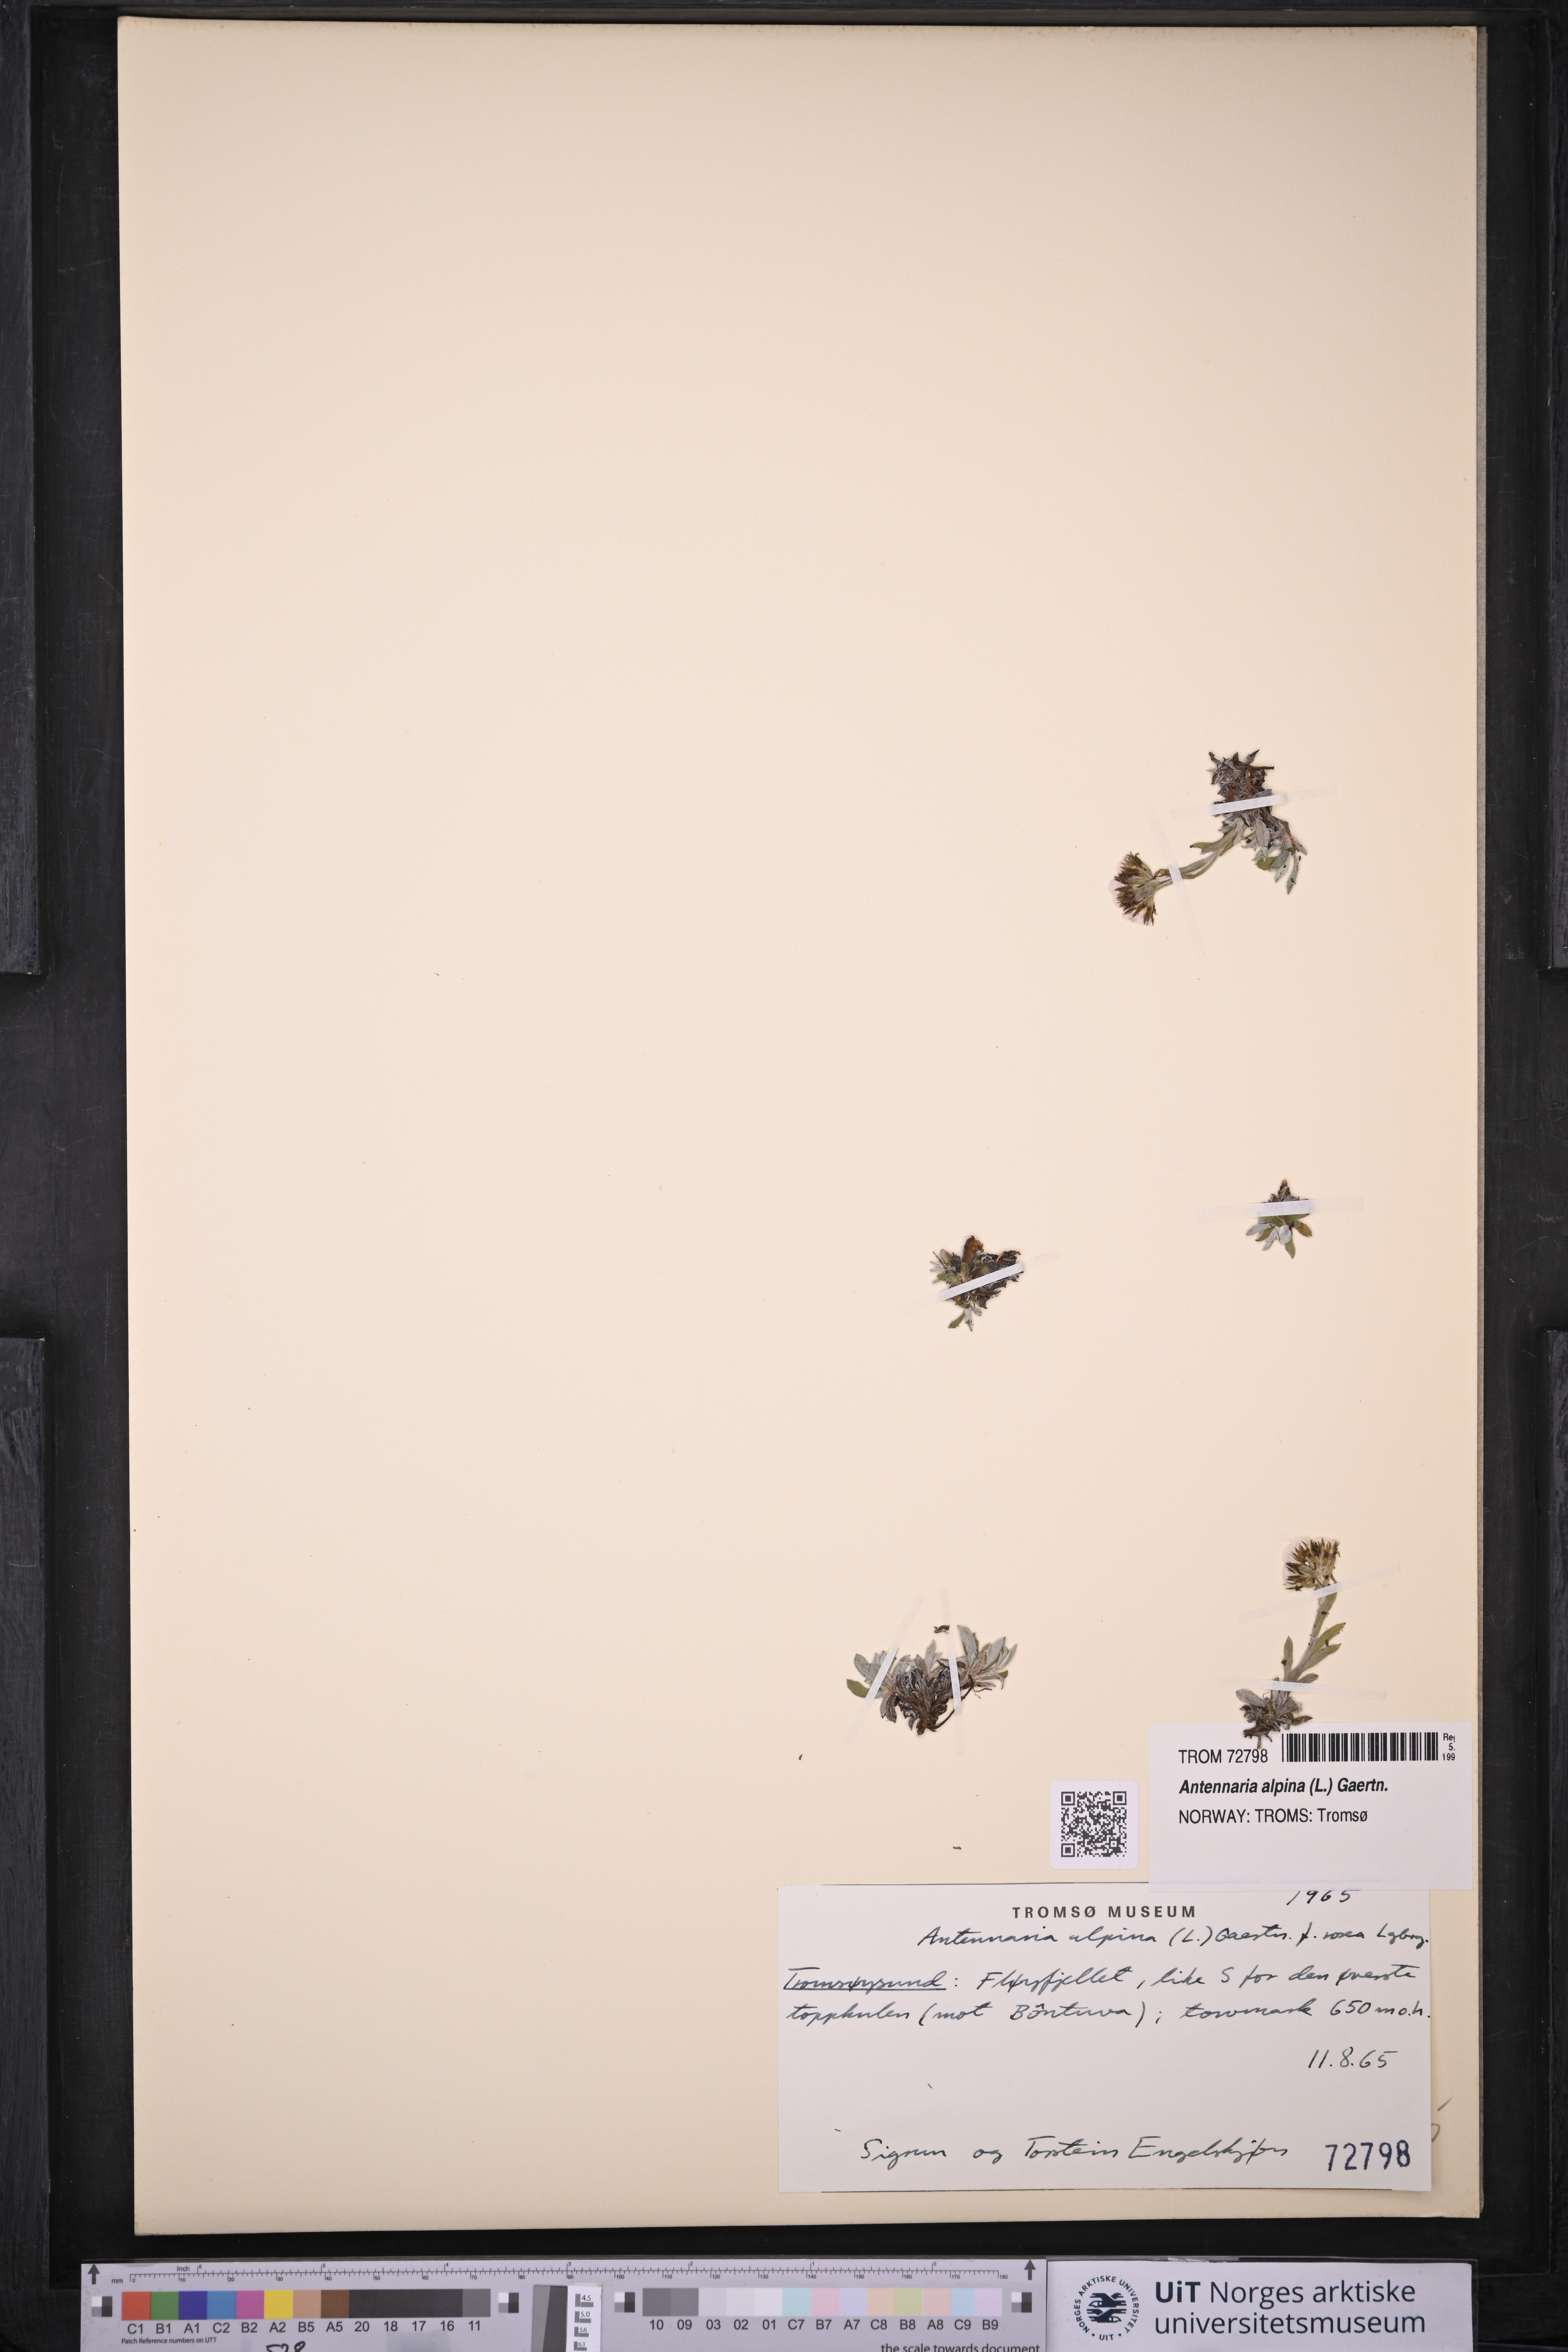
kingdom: Plantae
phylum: Tracheophyta
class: Magnoliopsida
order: Asterales
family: Asteraceae
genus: Antennaria
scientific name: Antennaria alpina
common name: Alpine pussytoes
